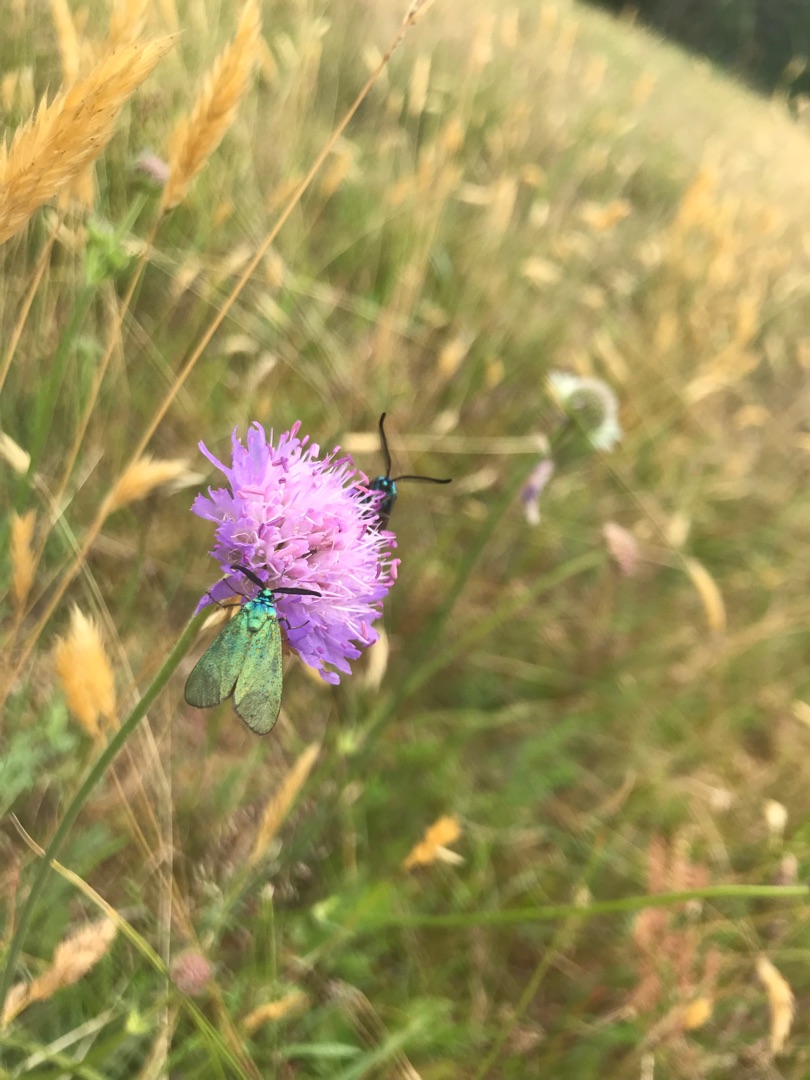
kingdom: Animalia
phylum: Arthropoda
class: Insecta
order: Lepidoptera
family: Zygaenidae
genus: Adscita
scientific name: Adscita statices
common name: Metalvinge
